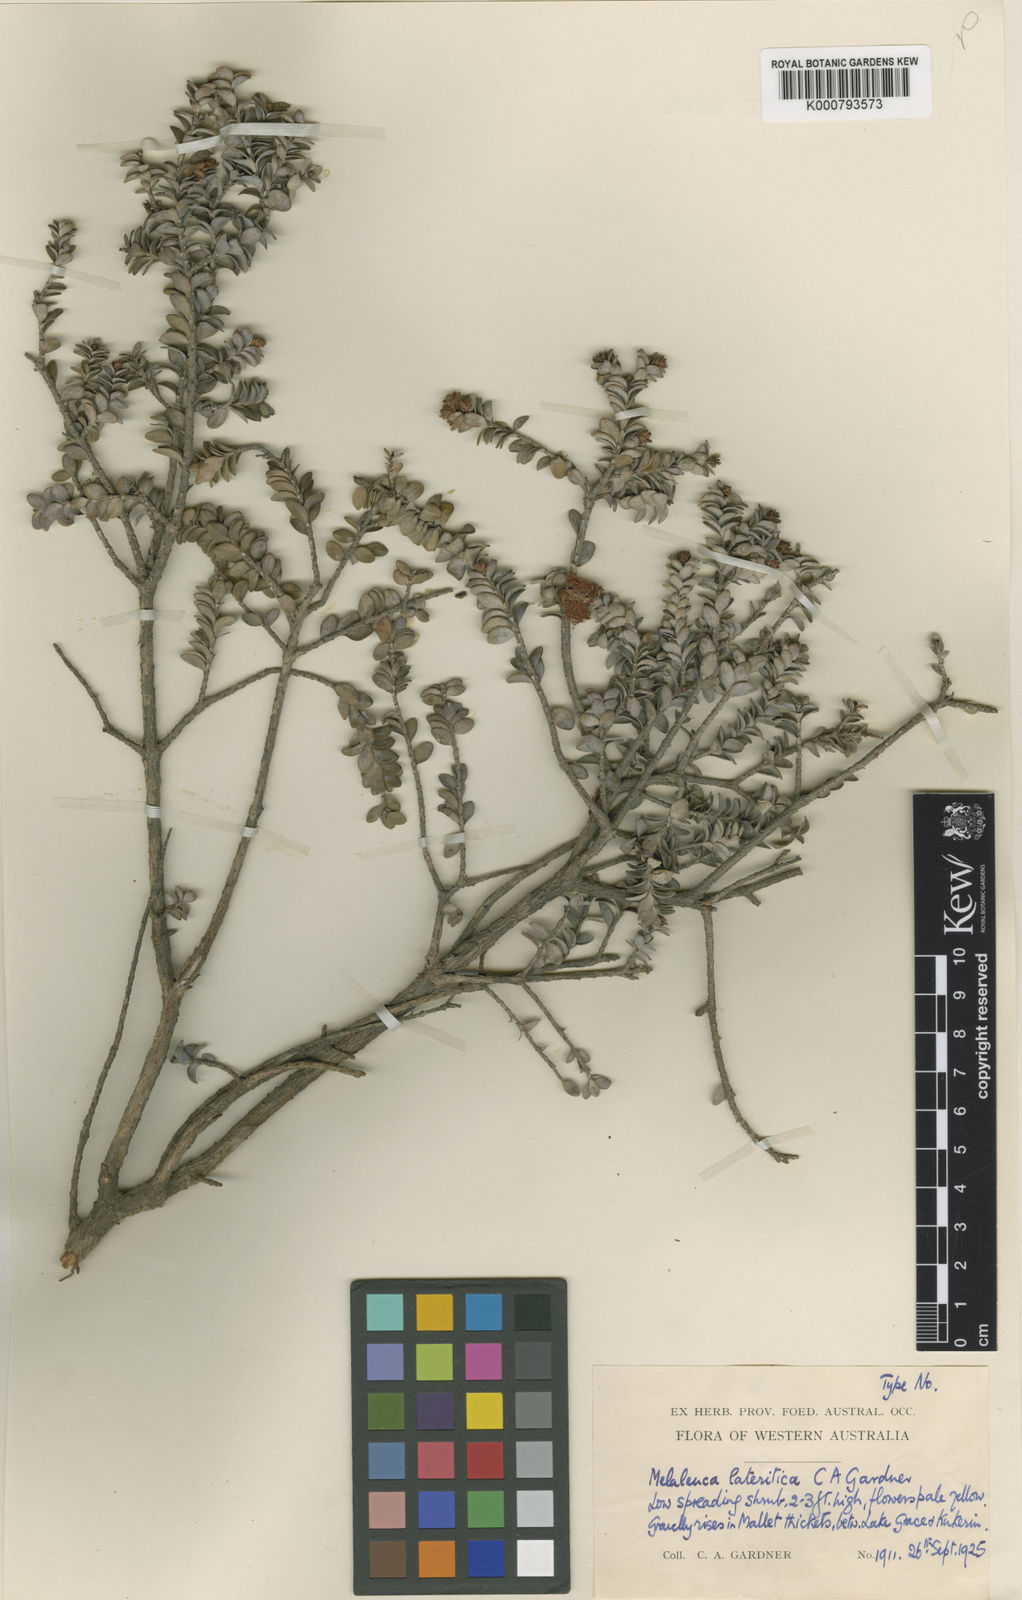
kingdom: Plantae
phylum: Tracheophyta
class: Magnoliopsida
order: Myrtales
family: Myrtaceae
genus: Melaleuca
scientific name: Melaleuca
